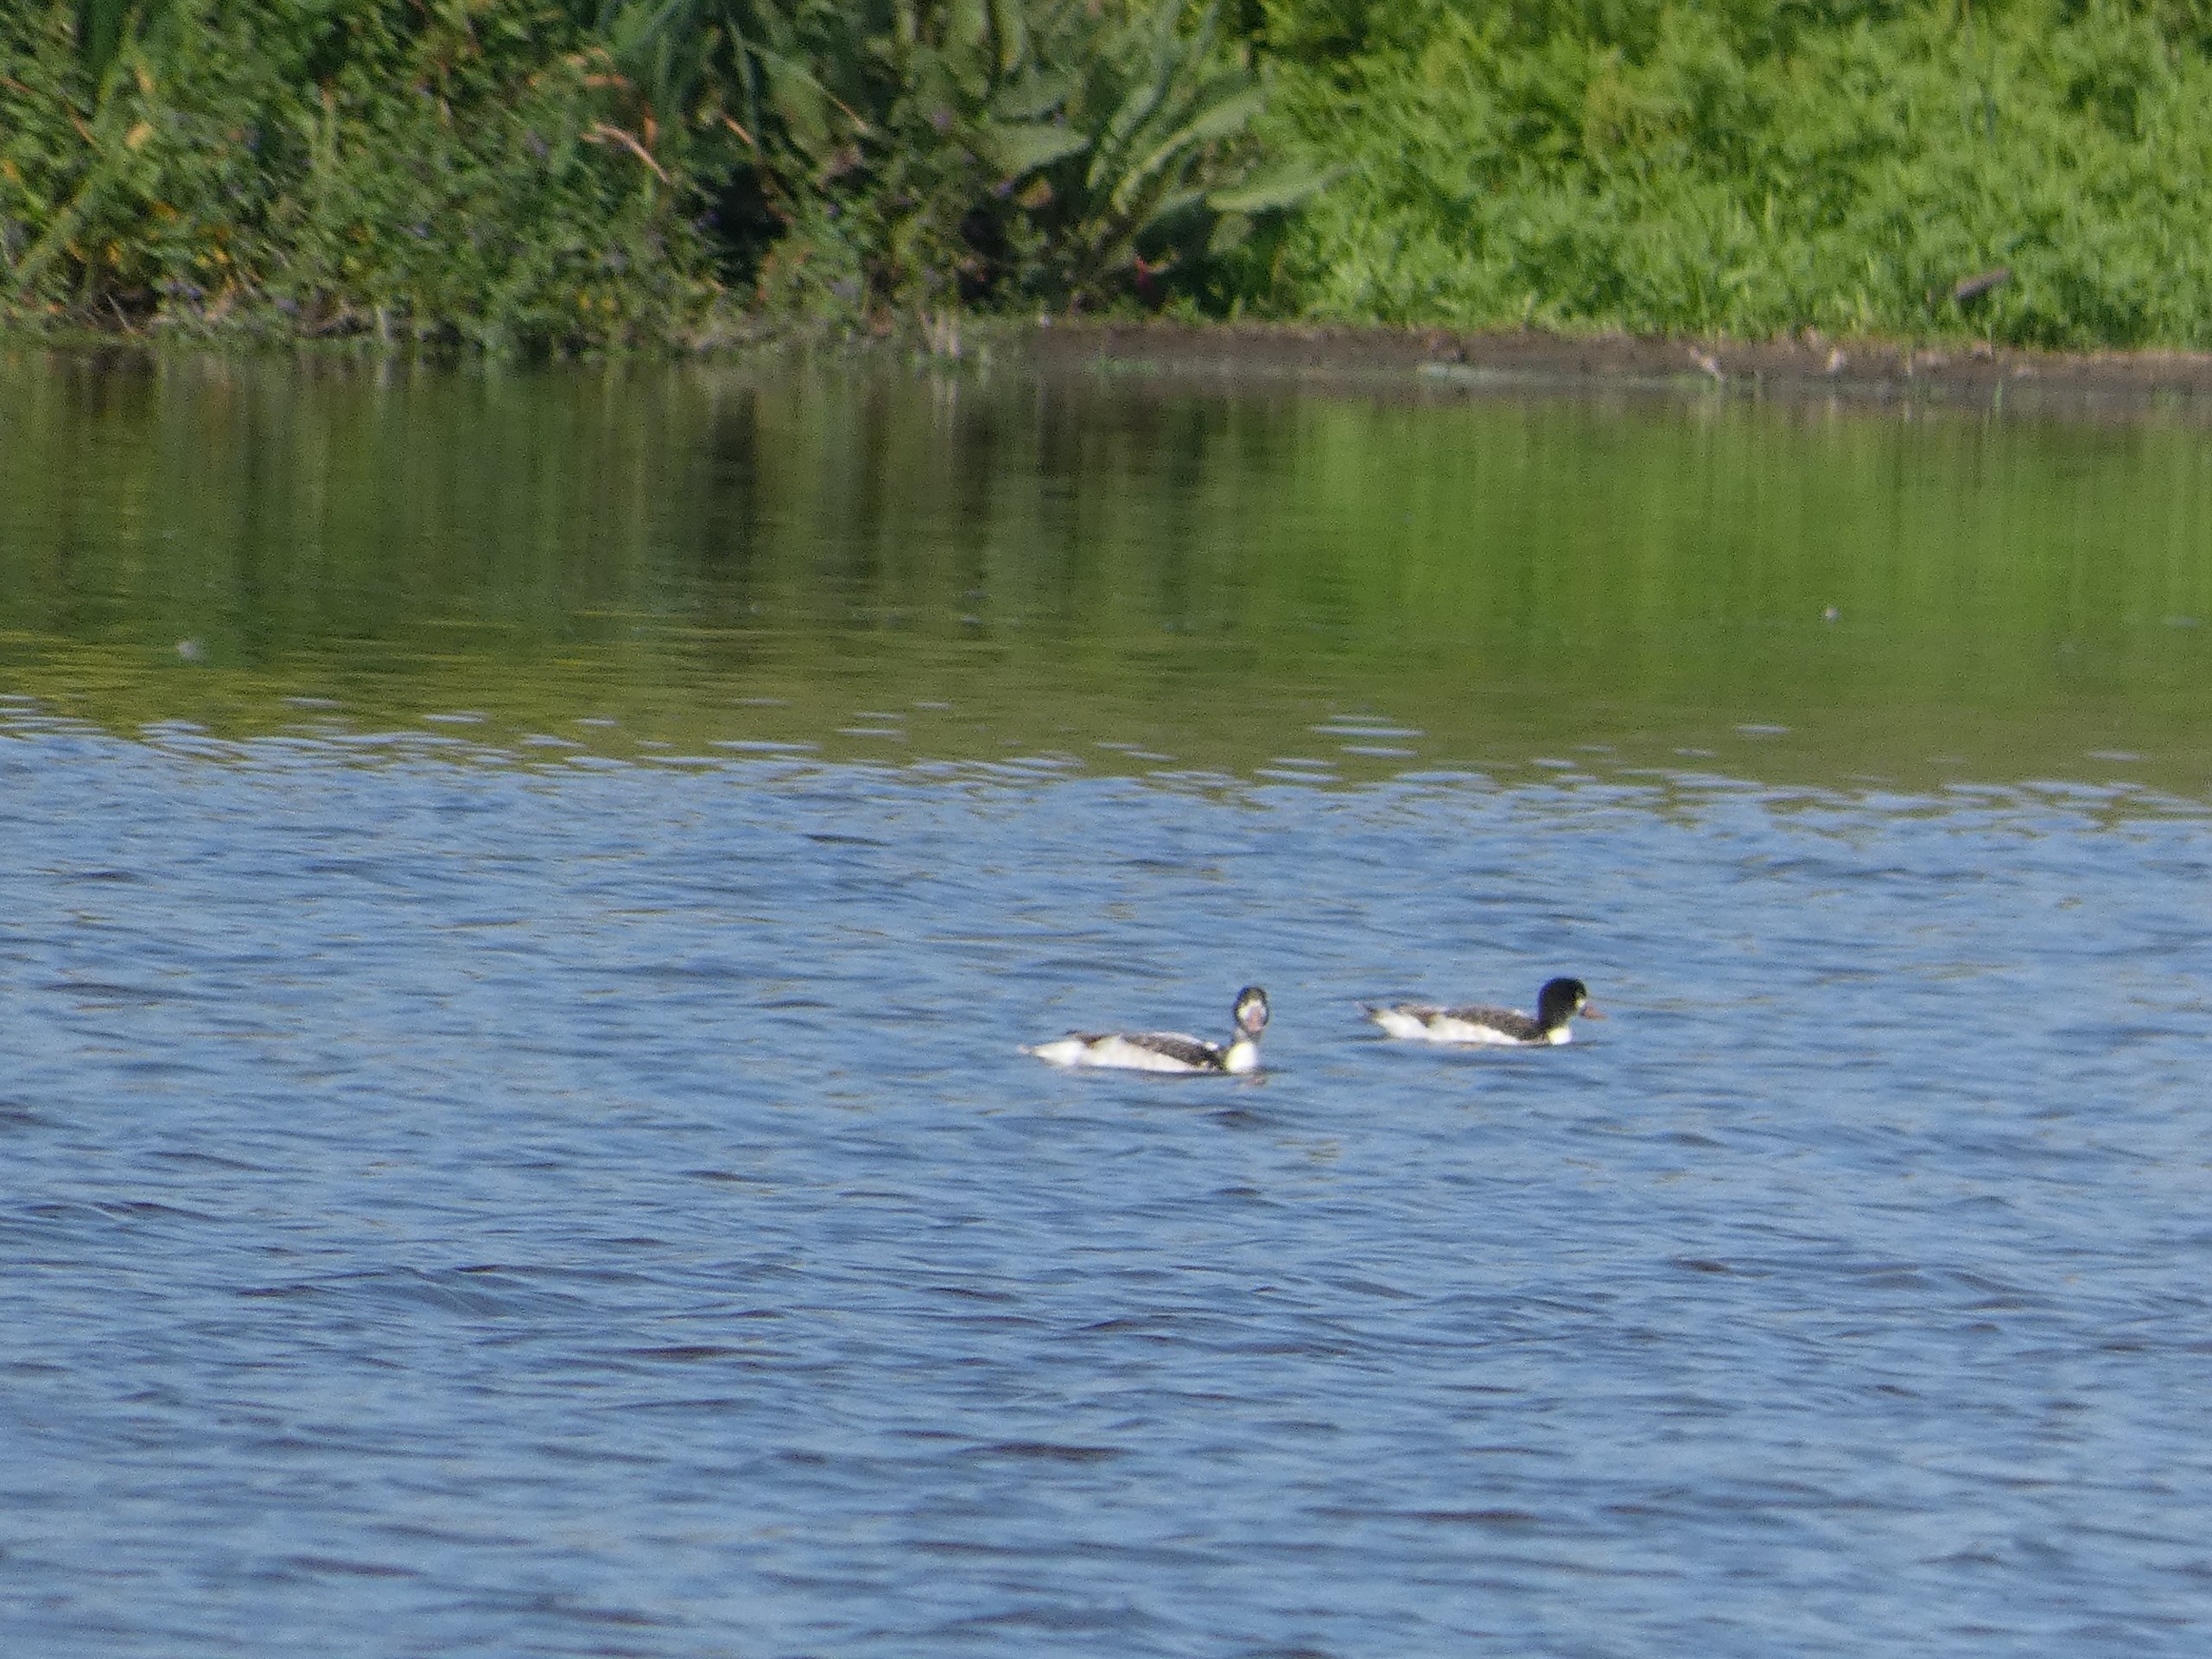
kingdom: Animalia
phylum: Chordata
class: Aves
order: Anseriformes
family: Anatidae
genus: Tadorna
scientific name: Tadorna tadorna
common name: Gravand
